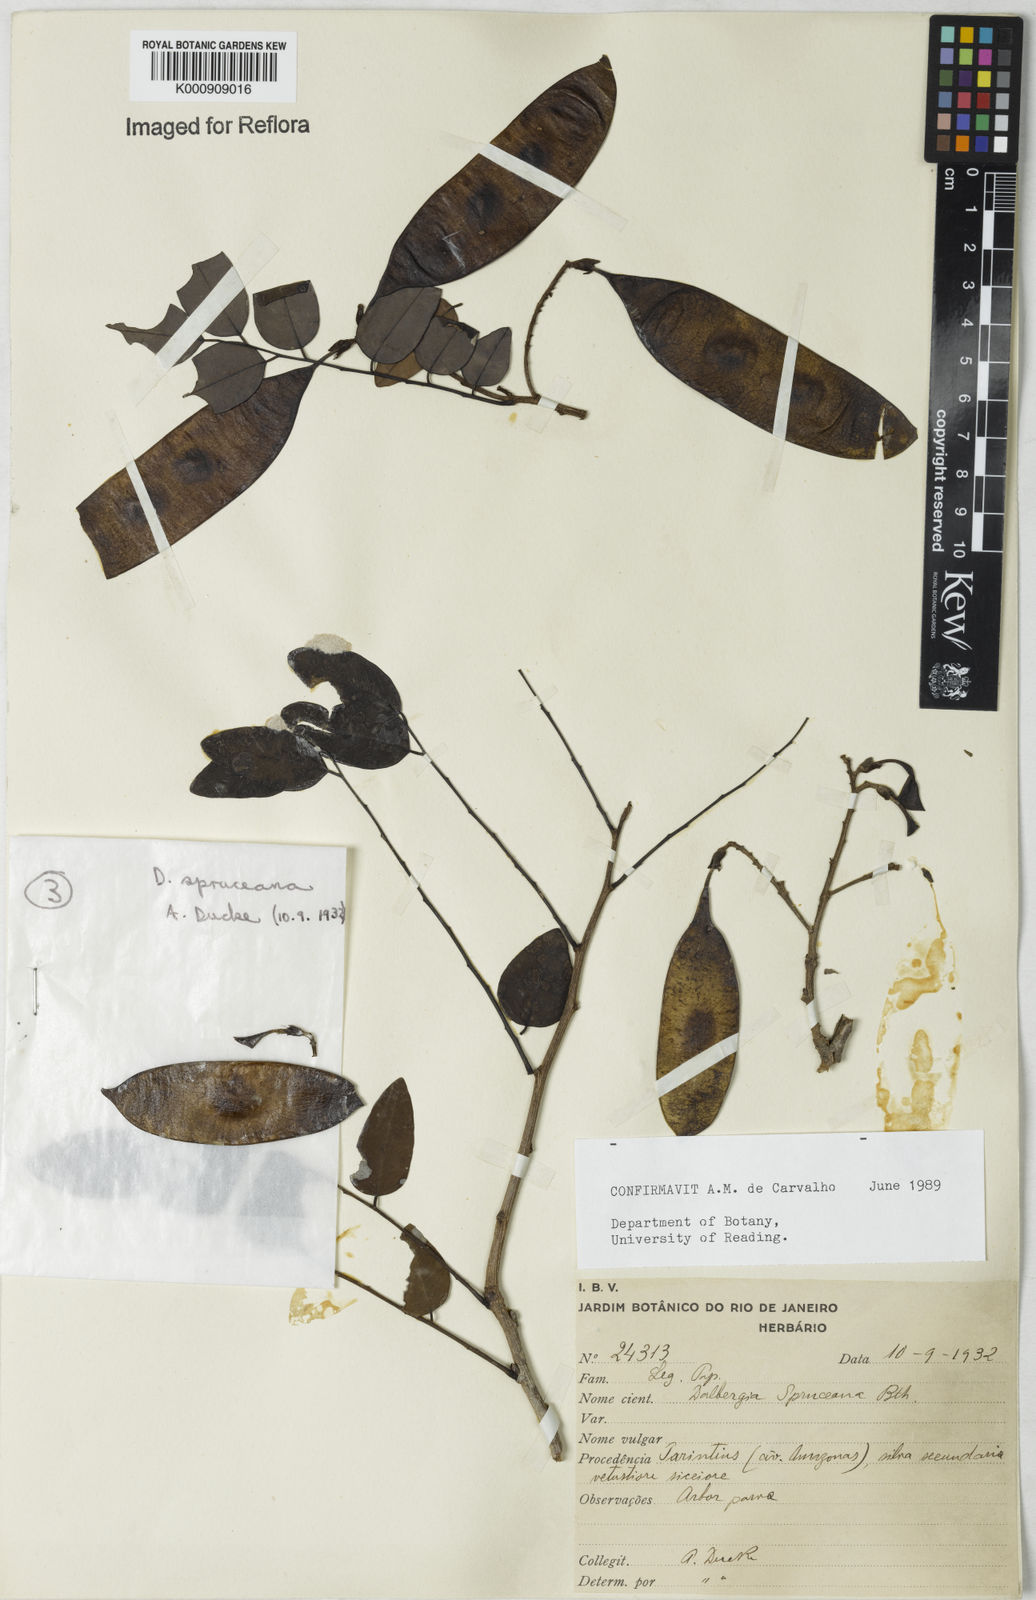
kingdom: Plantae
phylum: Tracheophyta
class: Magnoliopsida
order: Fabales
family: Fabaceae
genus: Dalbergia
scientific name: Dalbergia spruceana
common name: Amazon rosewood
